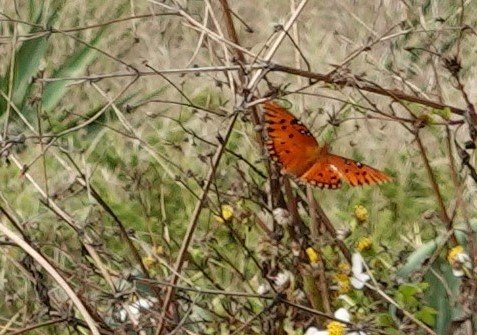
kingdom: Animalia
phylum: Arthropoda
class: Insecta
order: Lepidoptera
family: Nymphalidae
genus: Dione
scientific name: Dione vanillae
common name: Gulf Fritillary
